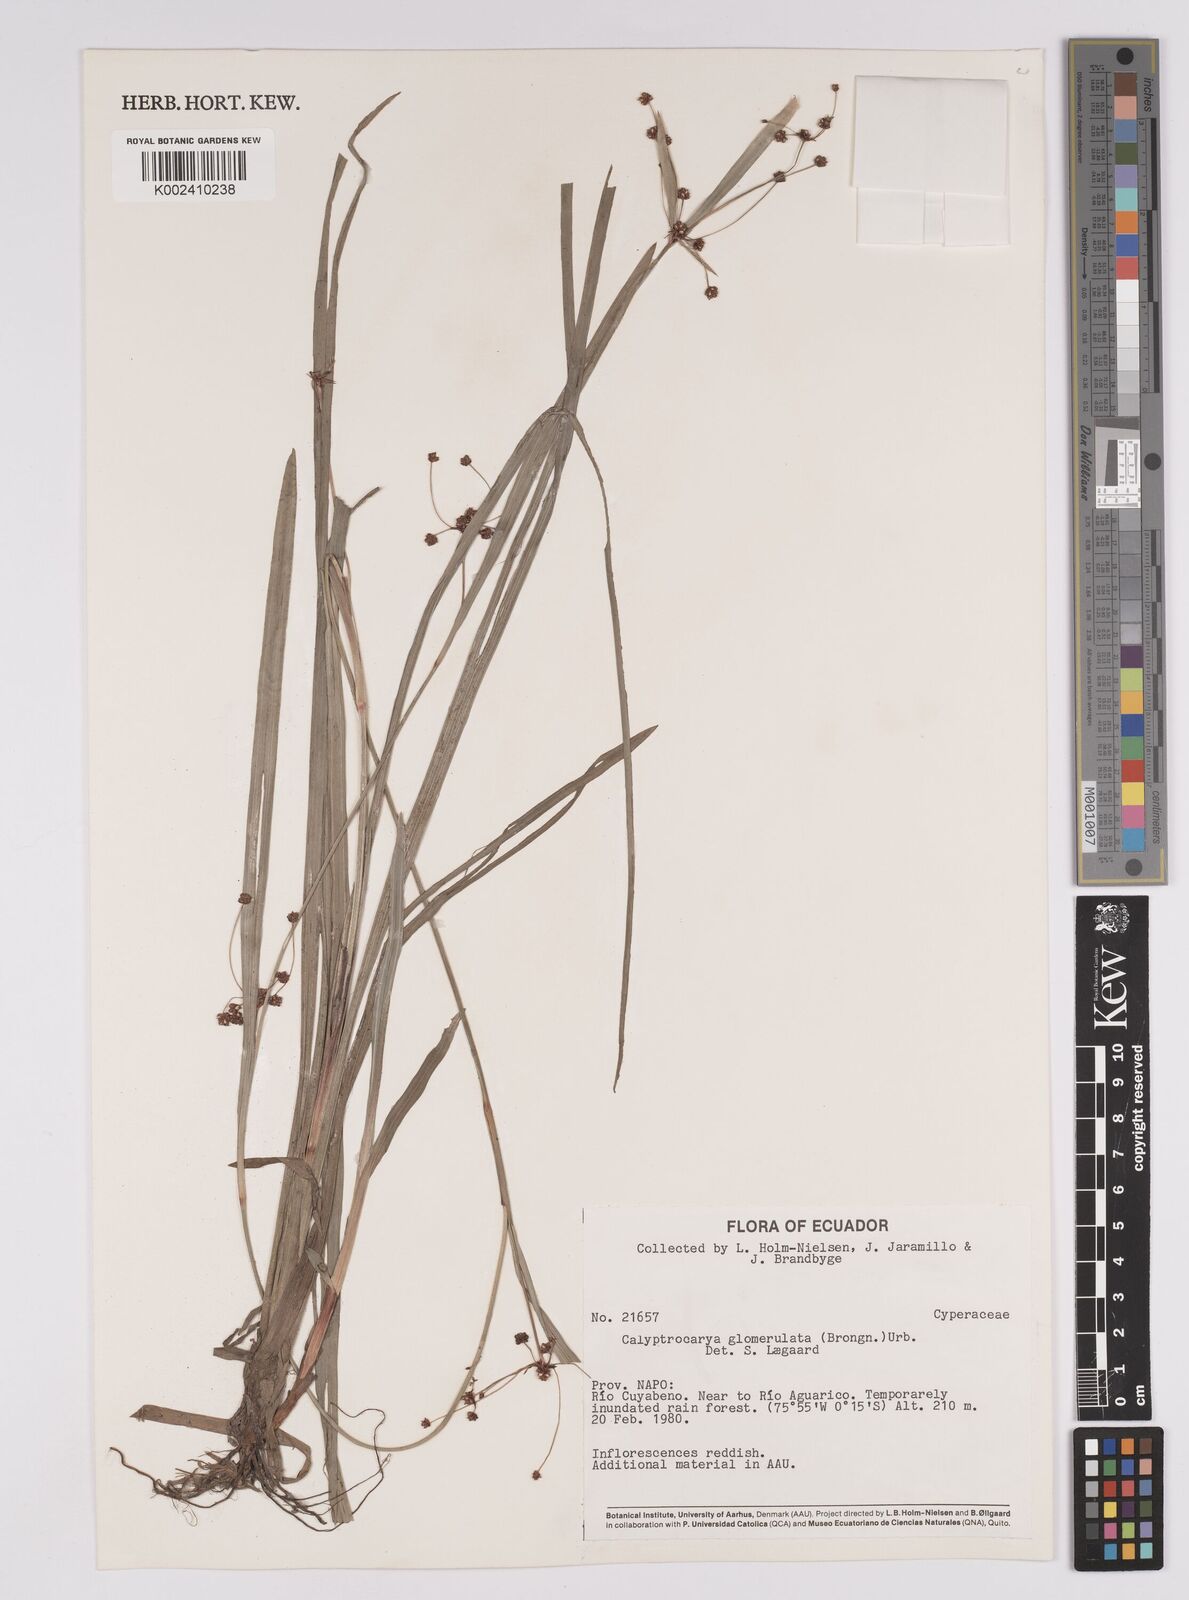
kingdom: Plantae
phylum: Tracheophyta
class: Liliopsida
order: Poales
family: Cyperaceae
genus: Calyptrocarya
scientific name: Calyptrocarya glomerulata
